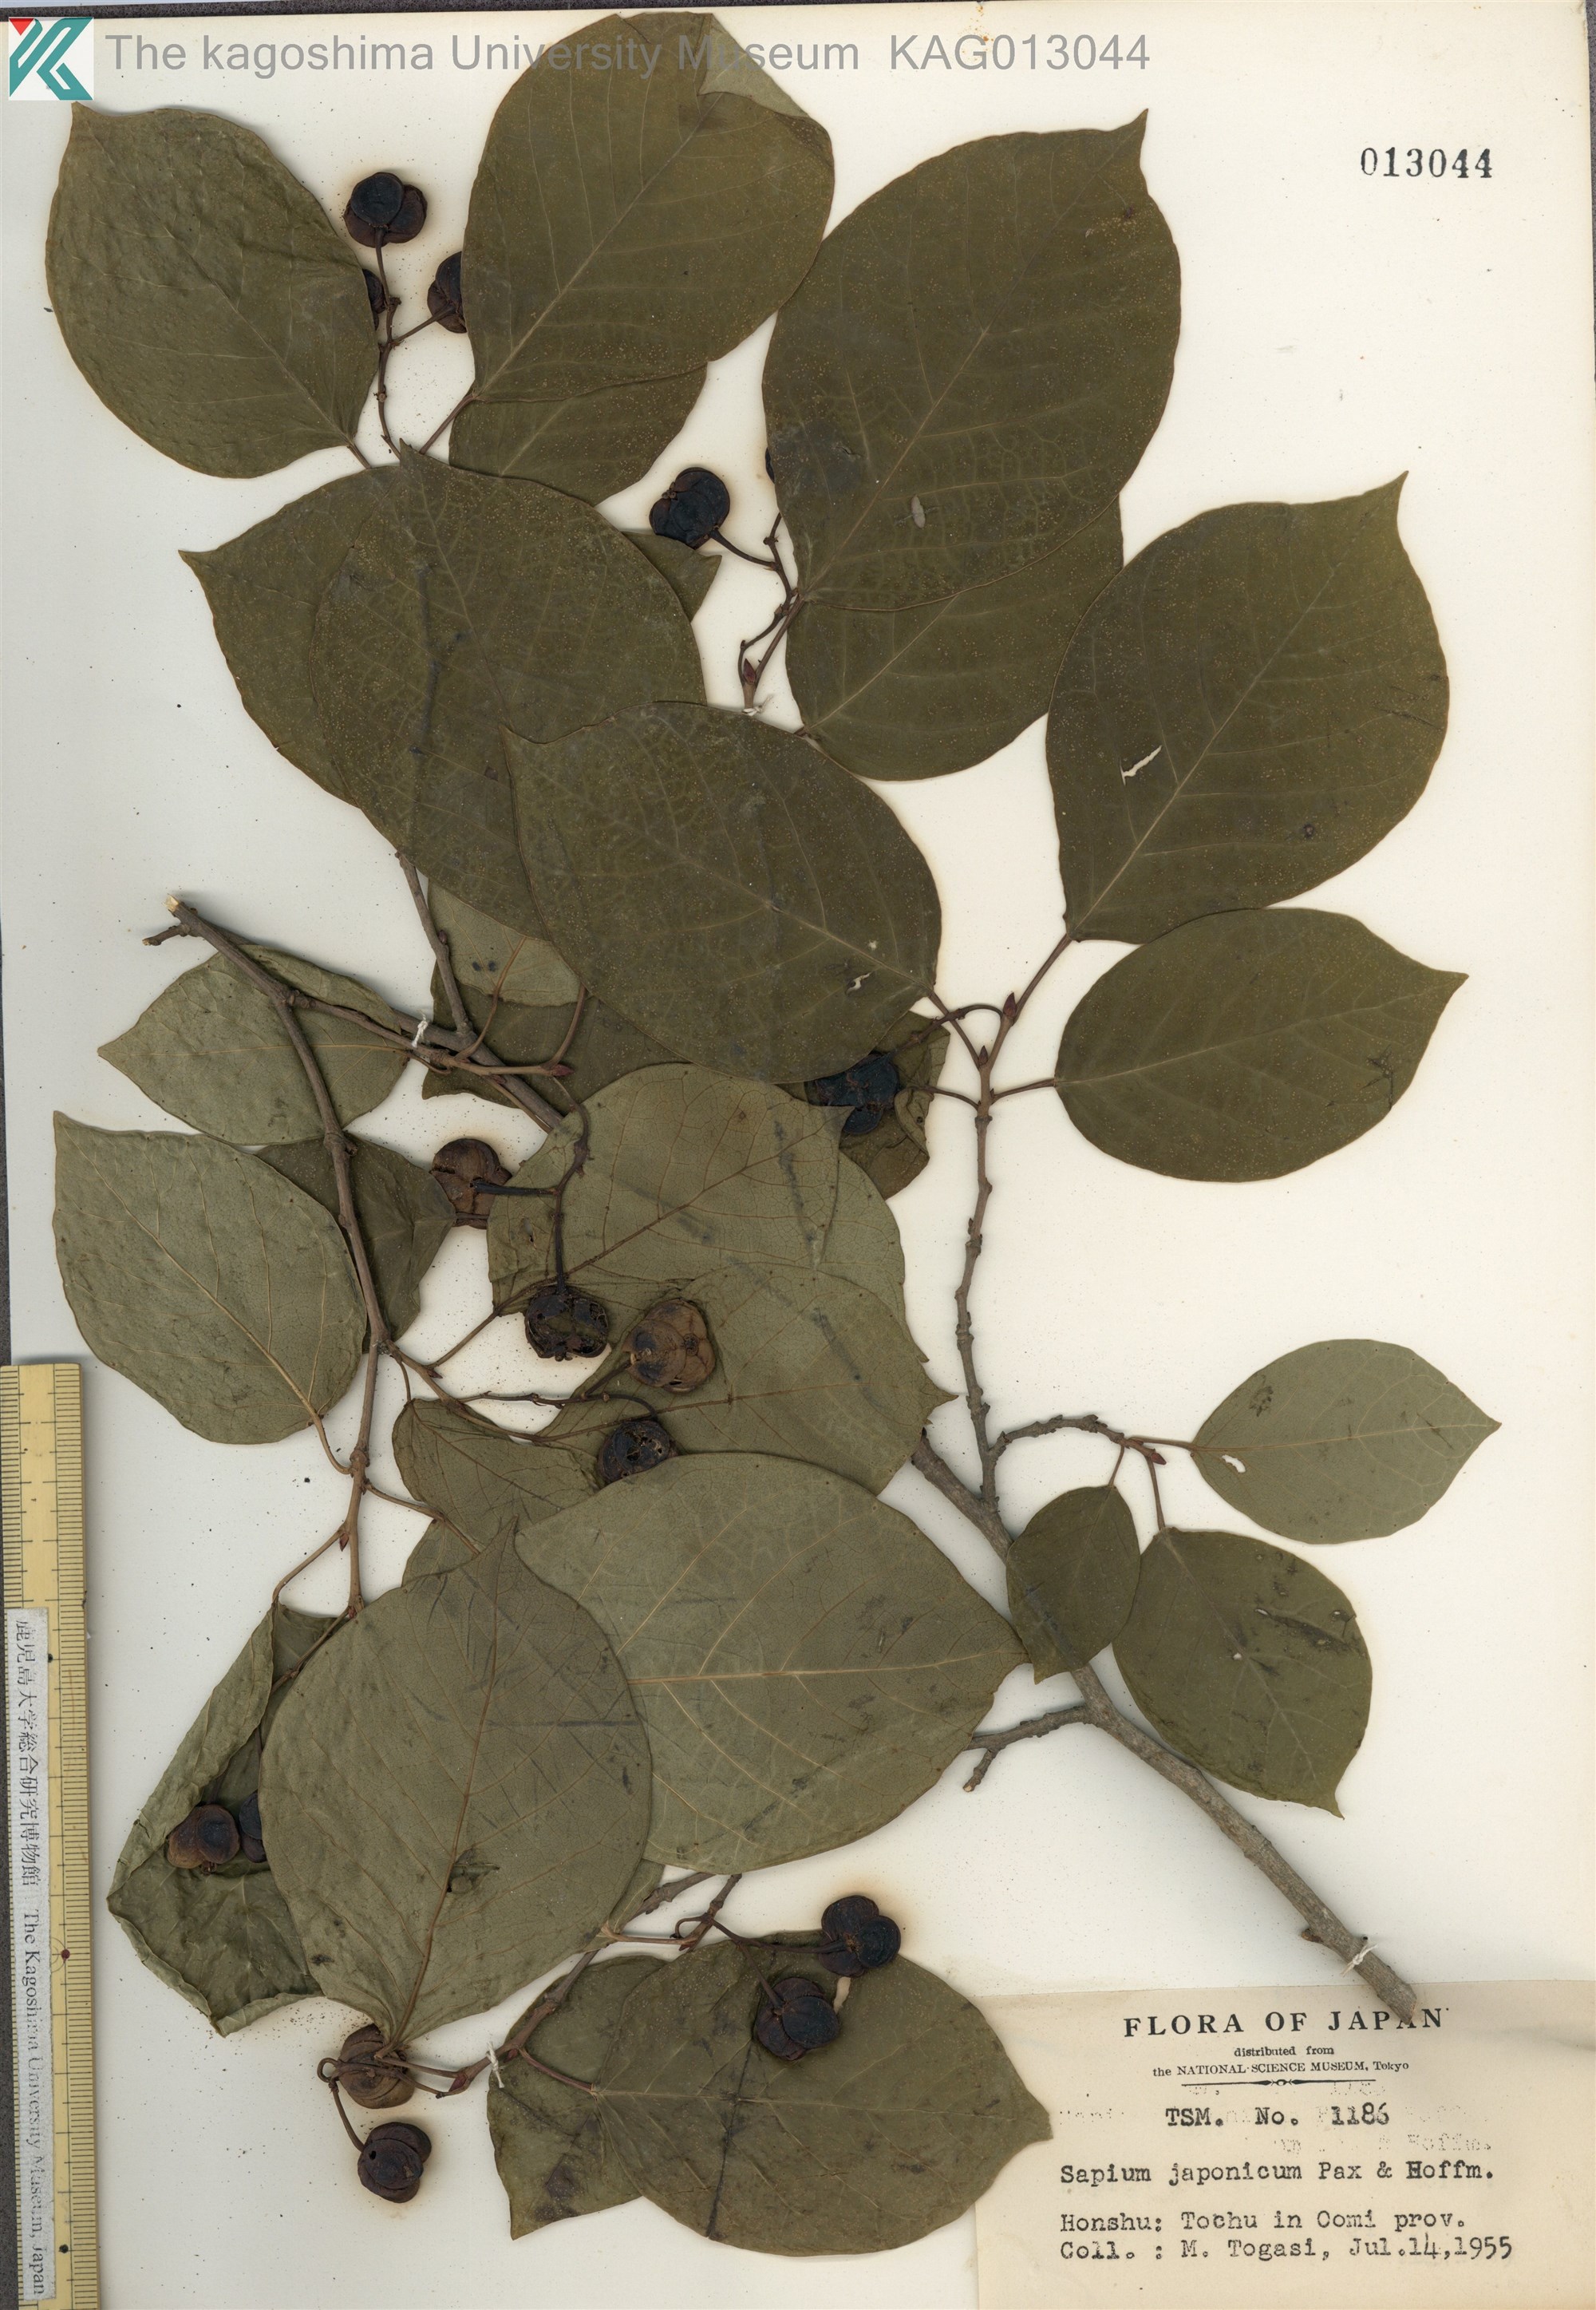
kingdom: Plantae
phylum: Tracheophyta
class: Magnoliopsida
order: Malpighiales
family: Euphorbiaceae
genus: Neoshirakia
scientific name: Neoshirakia japonica
